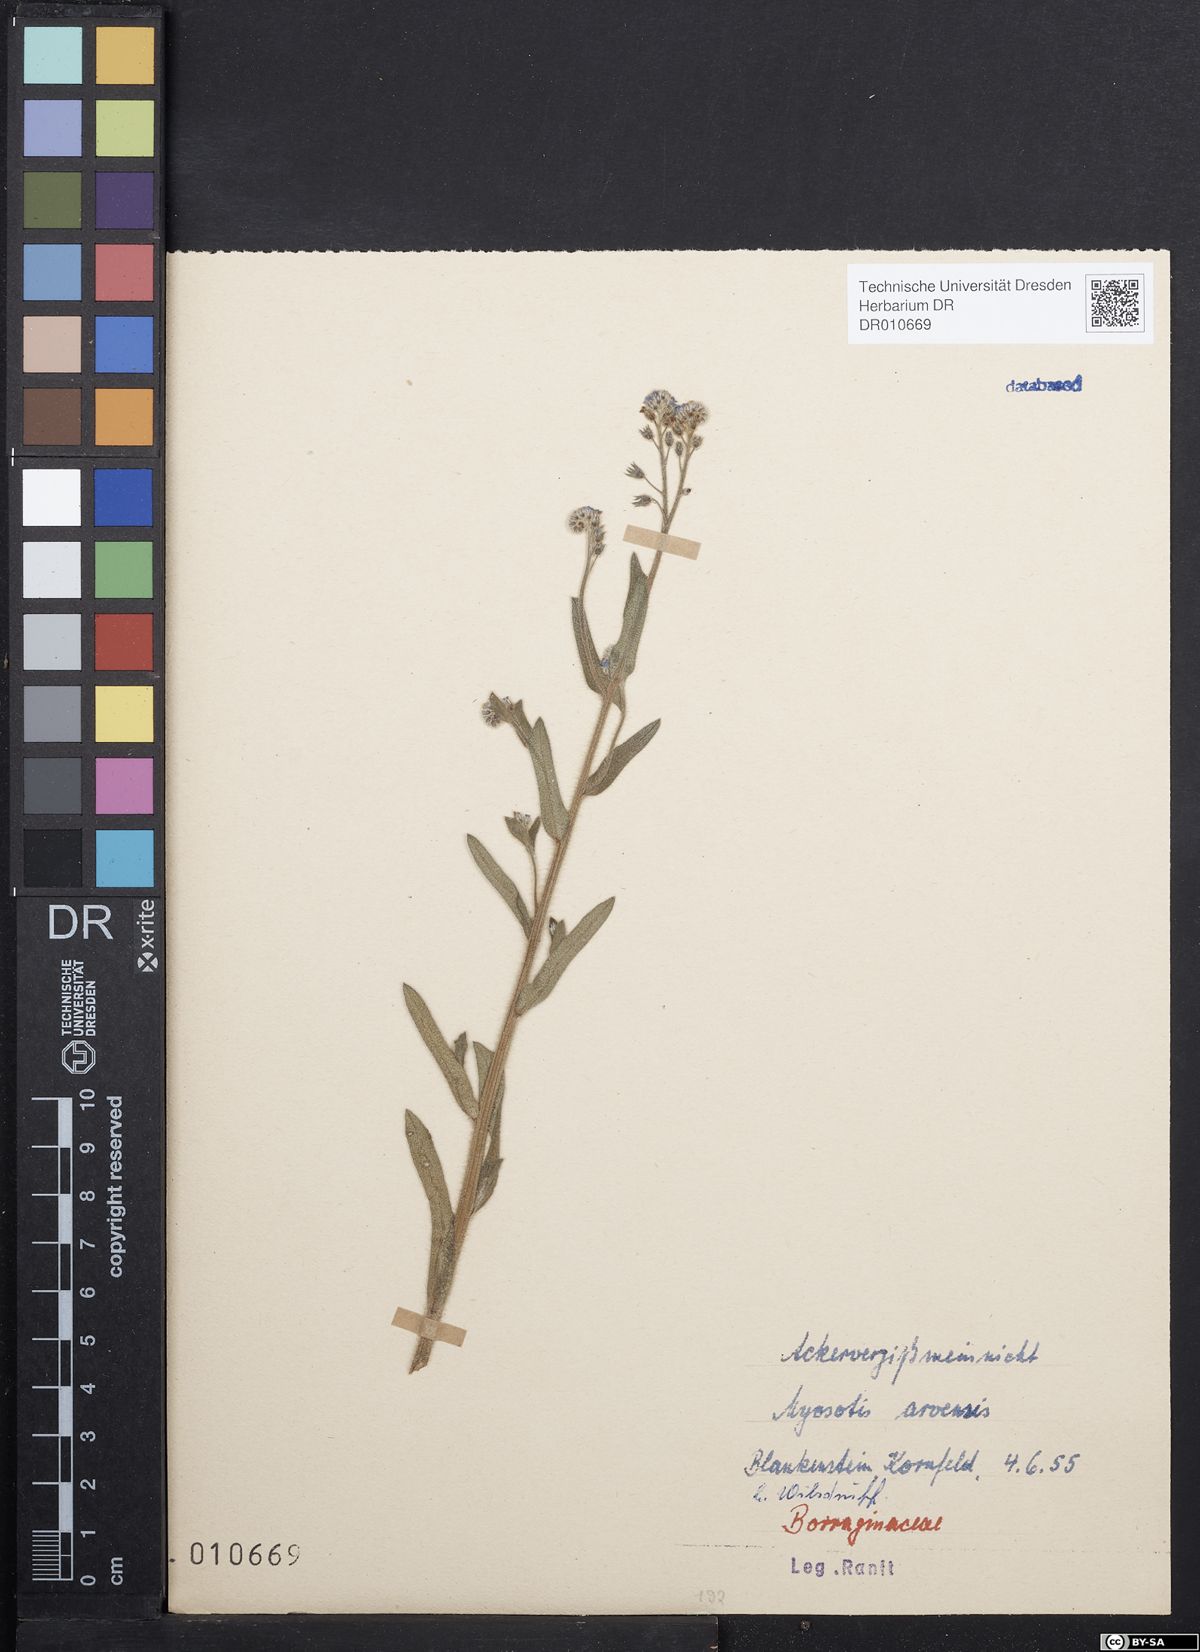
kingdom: Plantae
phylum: Tracheophyta
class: Magnoliopsida
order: Boraginales
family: Boraginaceae
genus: Myosotis
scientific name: Myosotis arvensis
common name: Field forget-me-not
